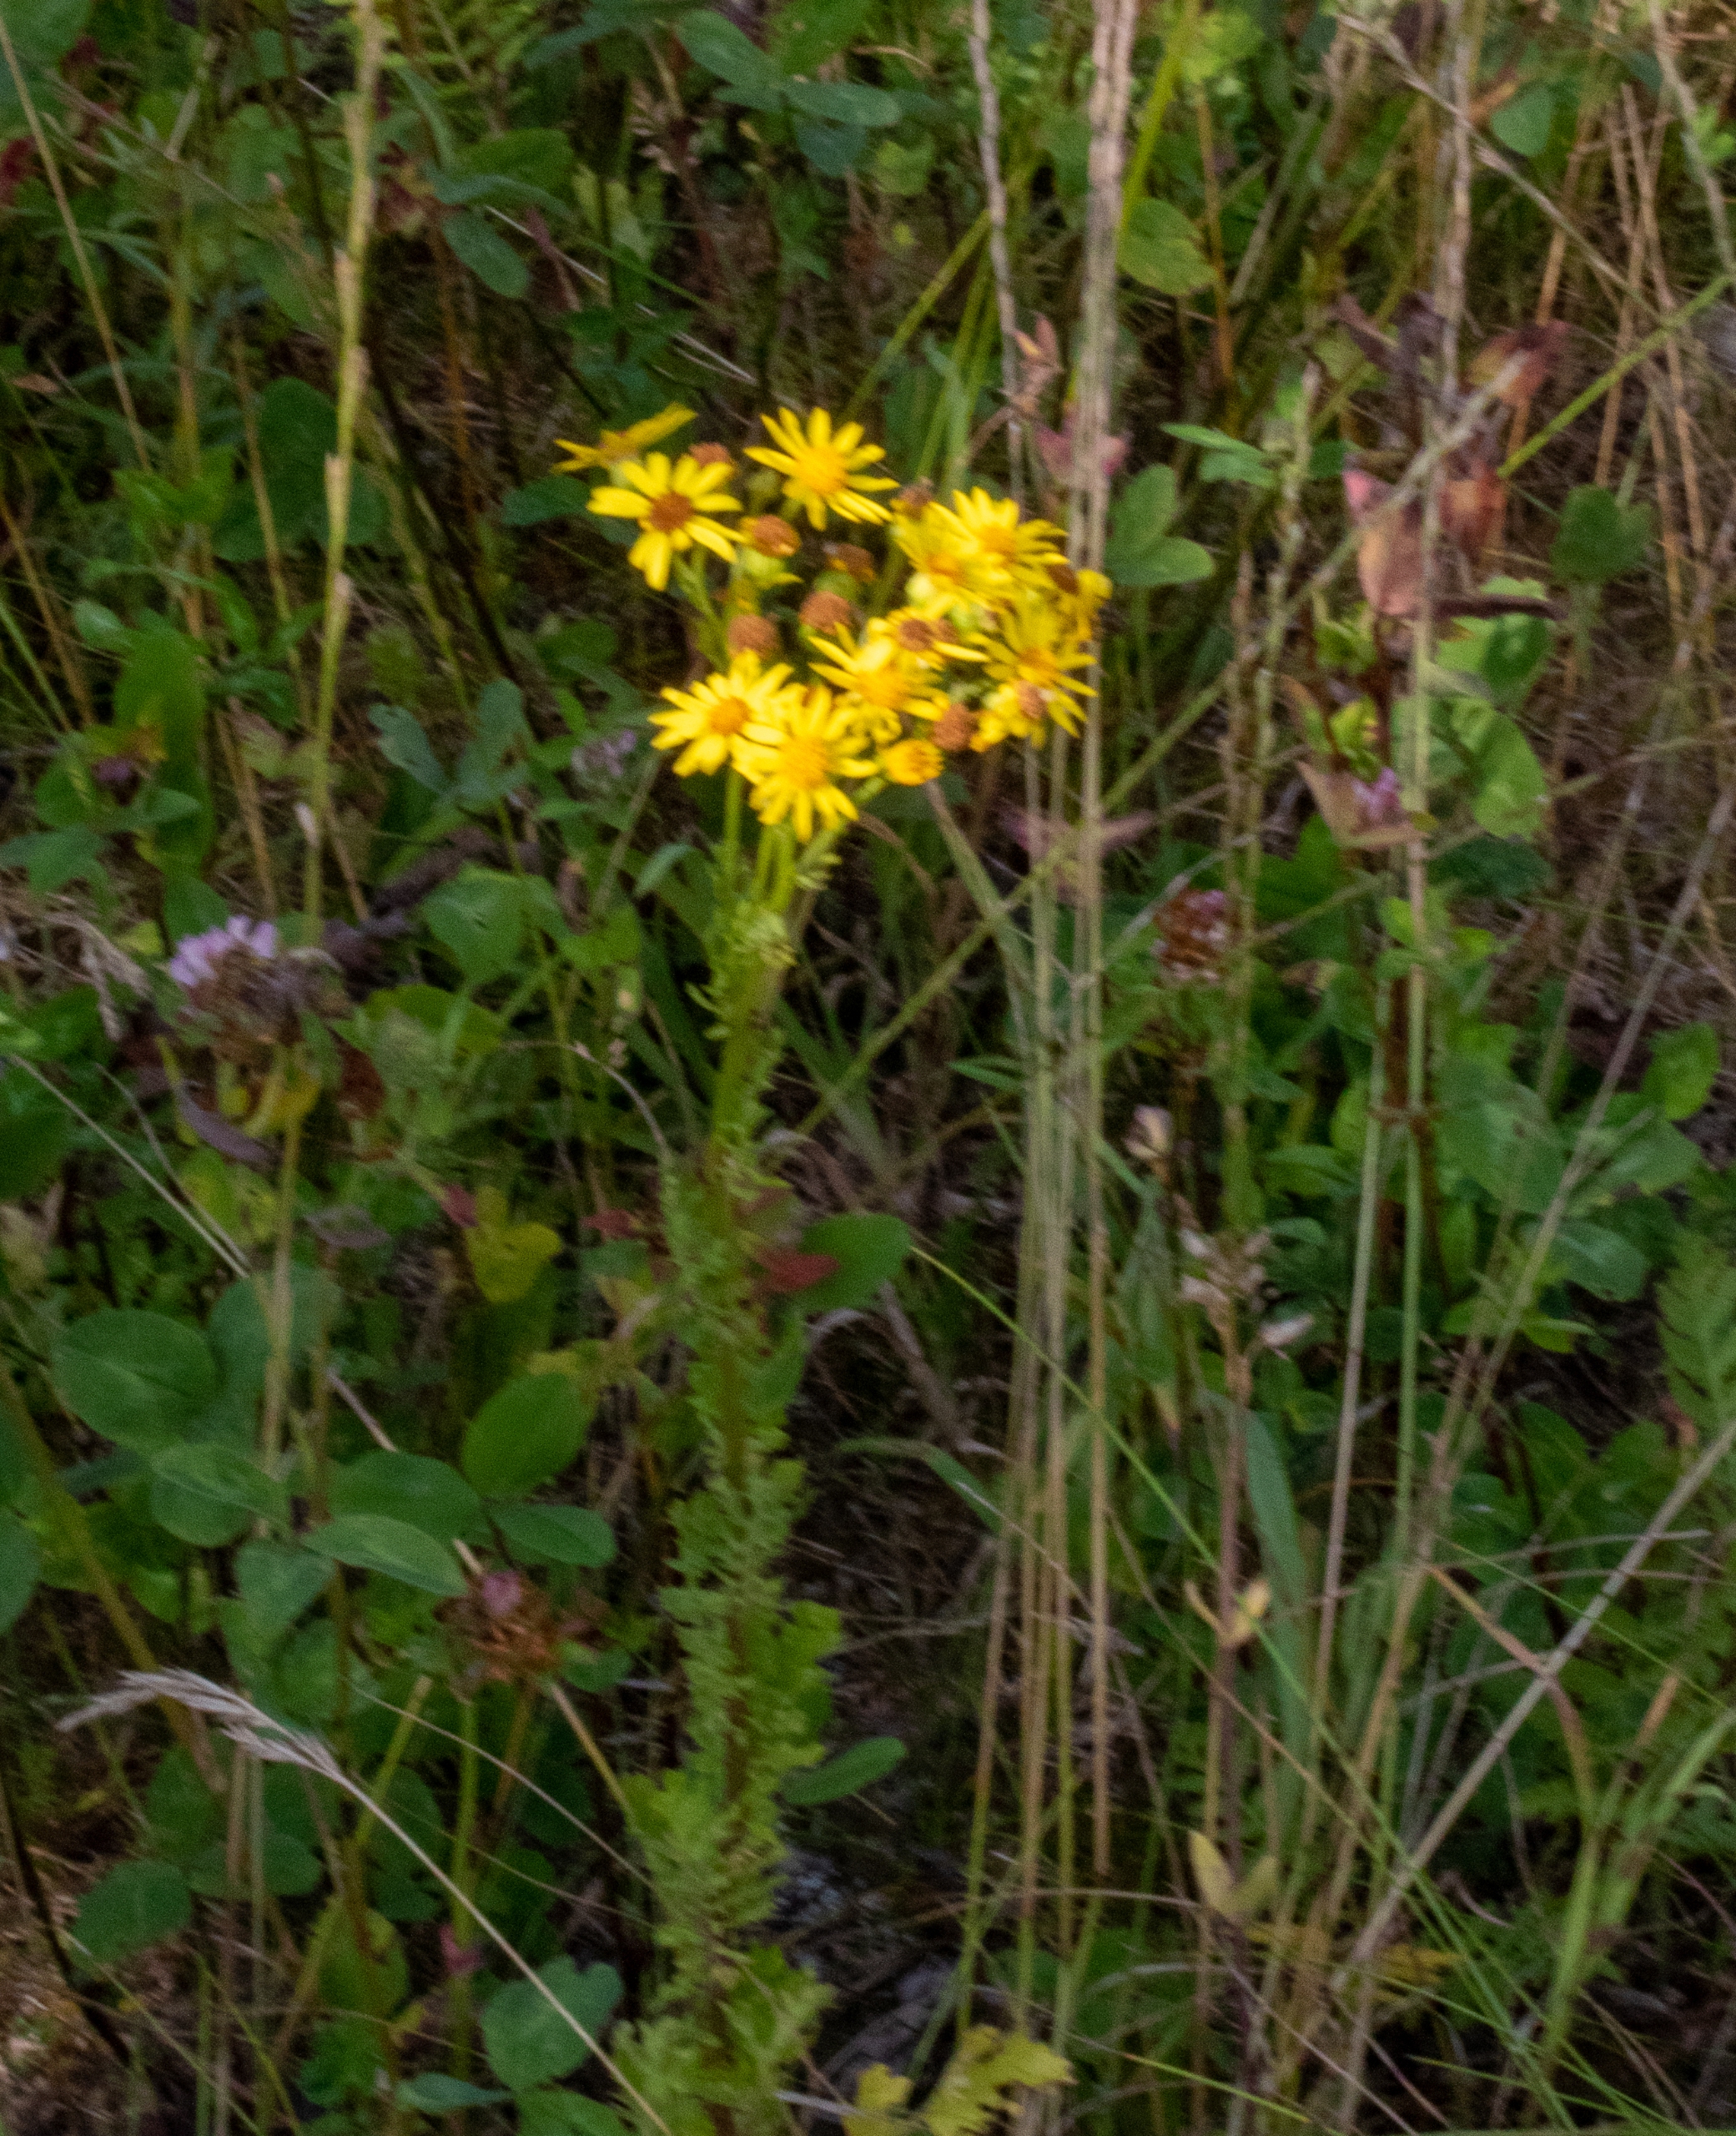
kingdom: Plantae
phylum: Tracheophyta
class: Magnoliopsida
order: Asterales
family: Asteraceae
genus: Jacobaea
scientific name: Jacobaea vulgaris
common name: Eng-brandbæger
